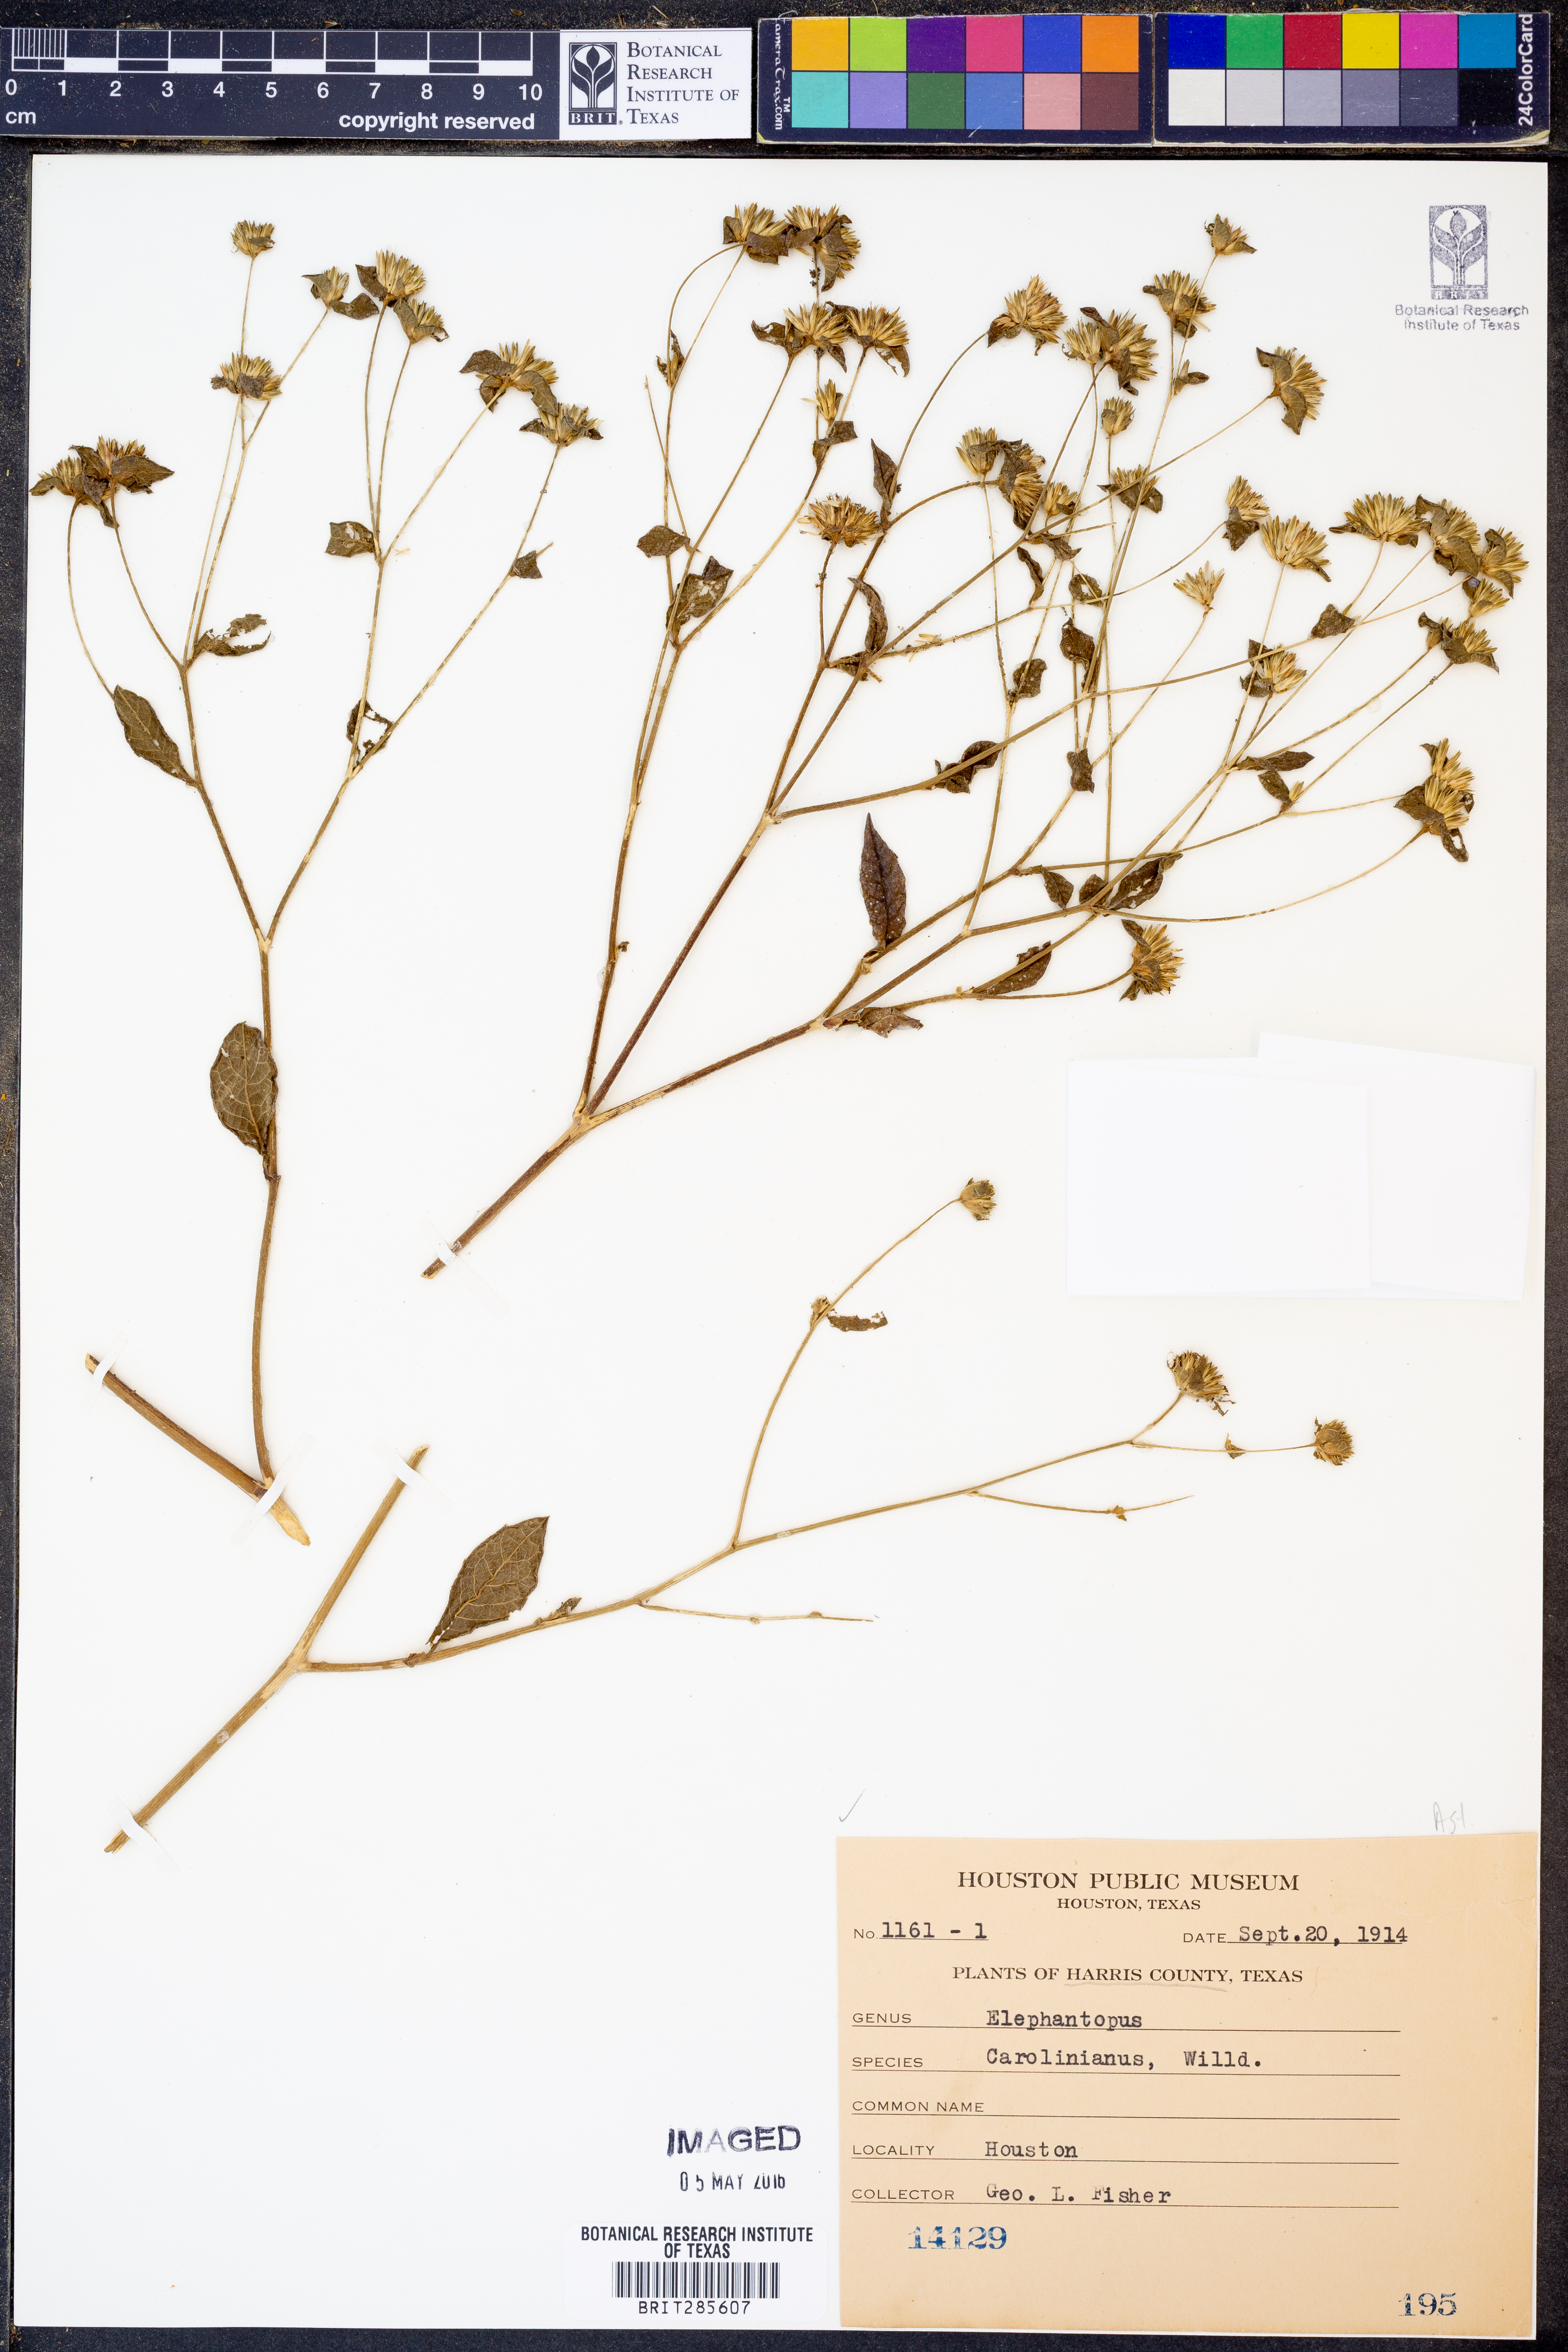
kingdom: Plantae
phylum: Tracheophyta
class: Magnoliopsida
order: Asterales
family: Asteraceae
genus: Elephantopus
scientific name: Elephantopus carolinianus
